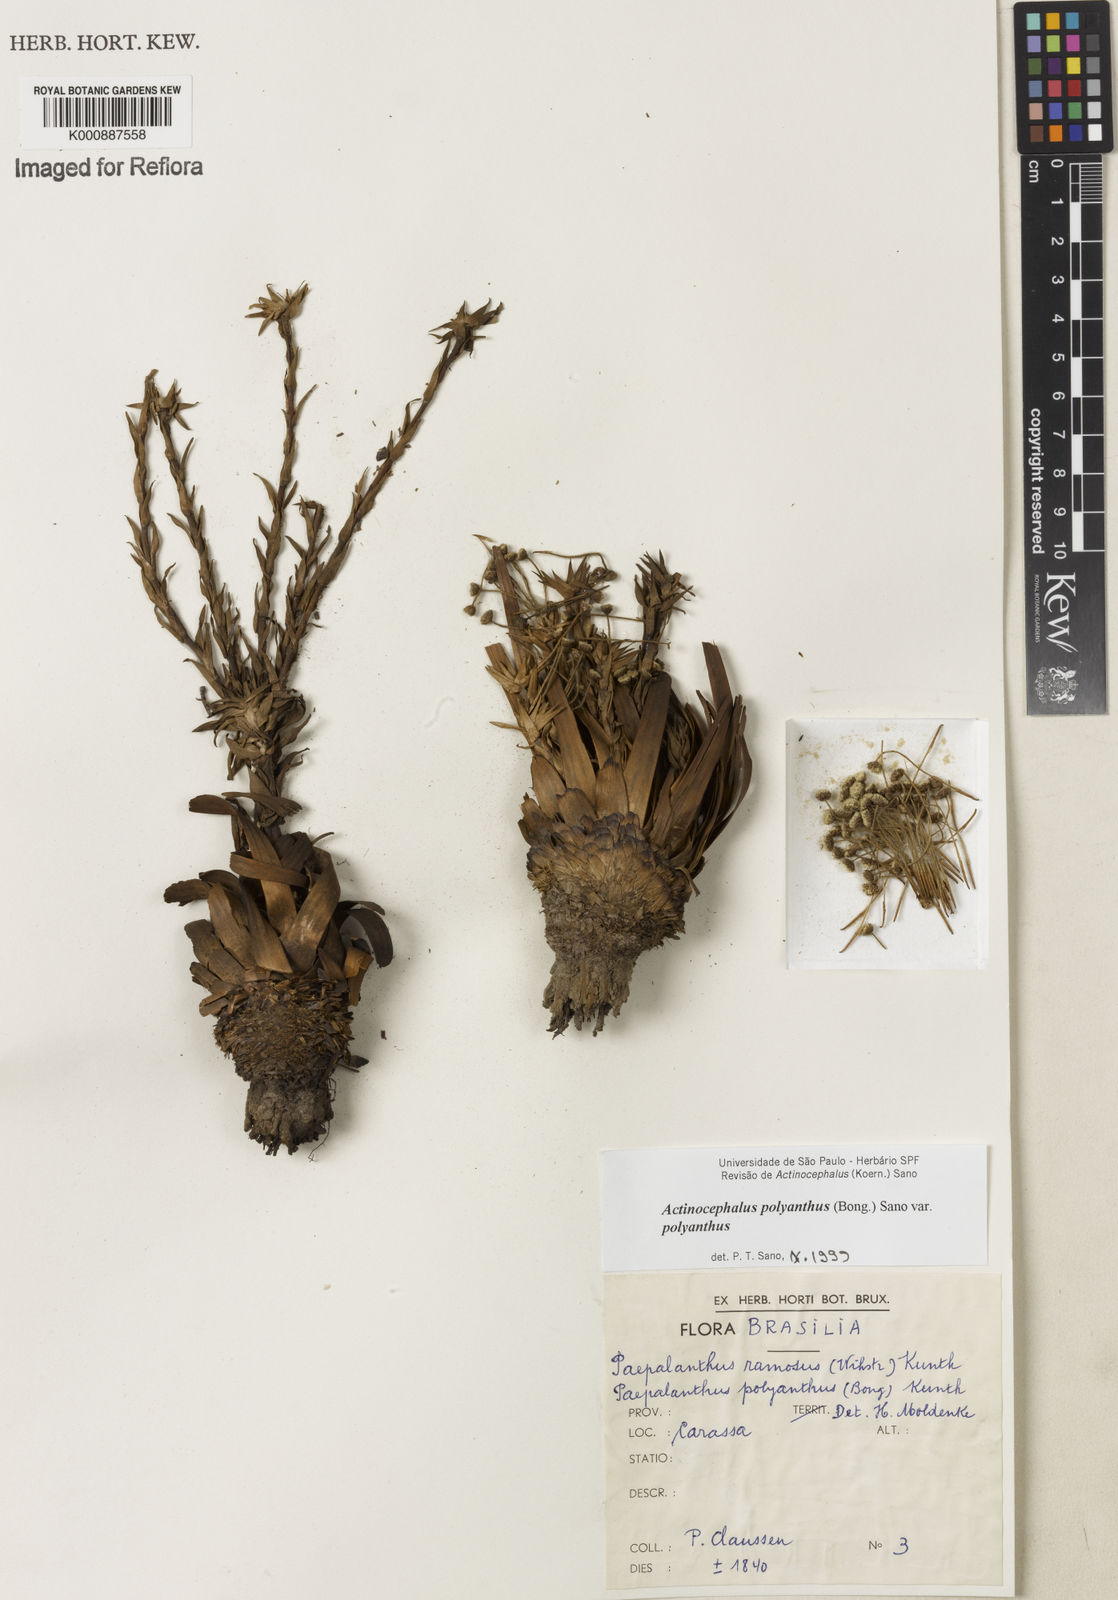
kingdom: Plantae
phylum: Tracheophyta
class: Liliopsida
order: Poales
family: Eriocaulaceae
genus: Paepalanthus
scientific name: Paepalanthus polyanthus
